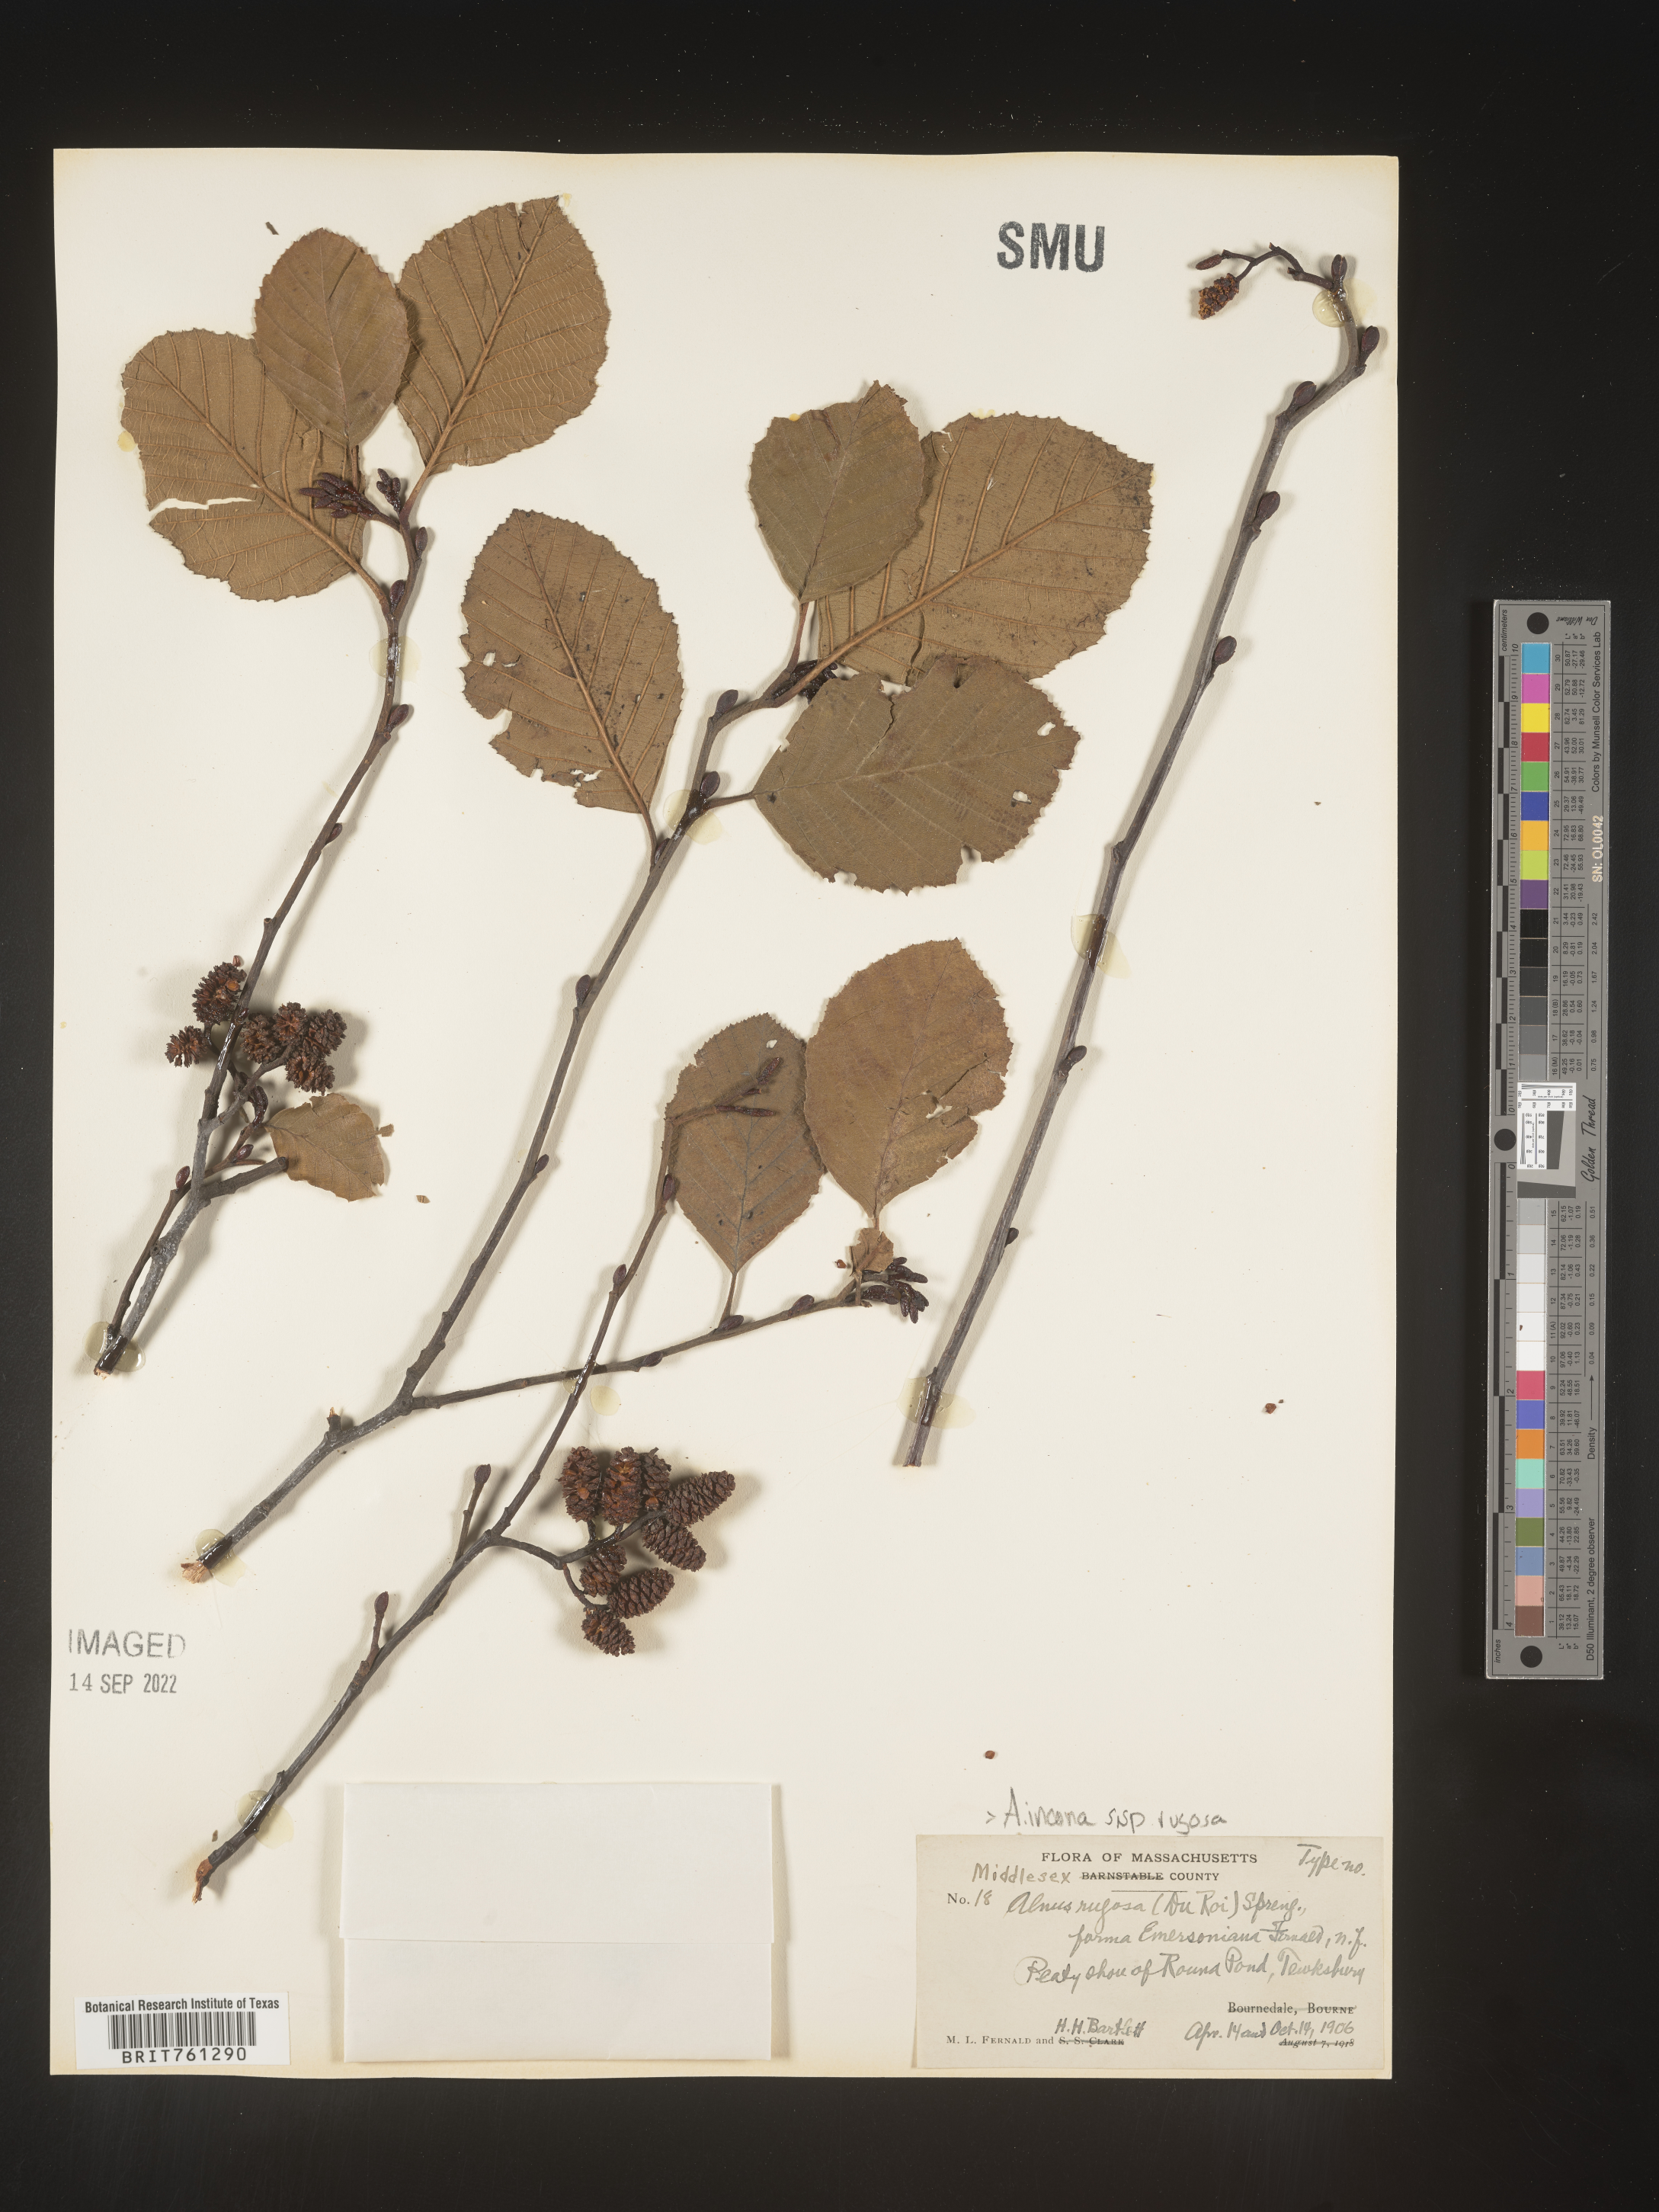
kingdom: Plantae
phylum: Tracheophyta
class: Magnoliopsida
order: Fagales
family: Betulaceae
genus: Alnus
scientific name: Alnus incana
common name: Grey alder
